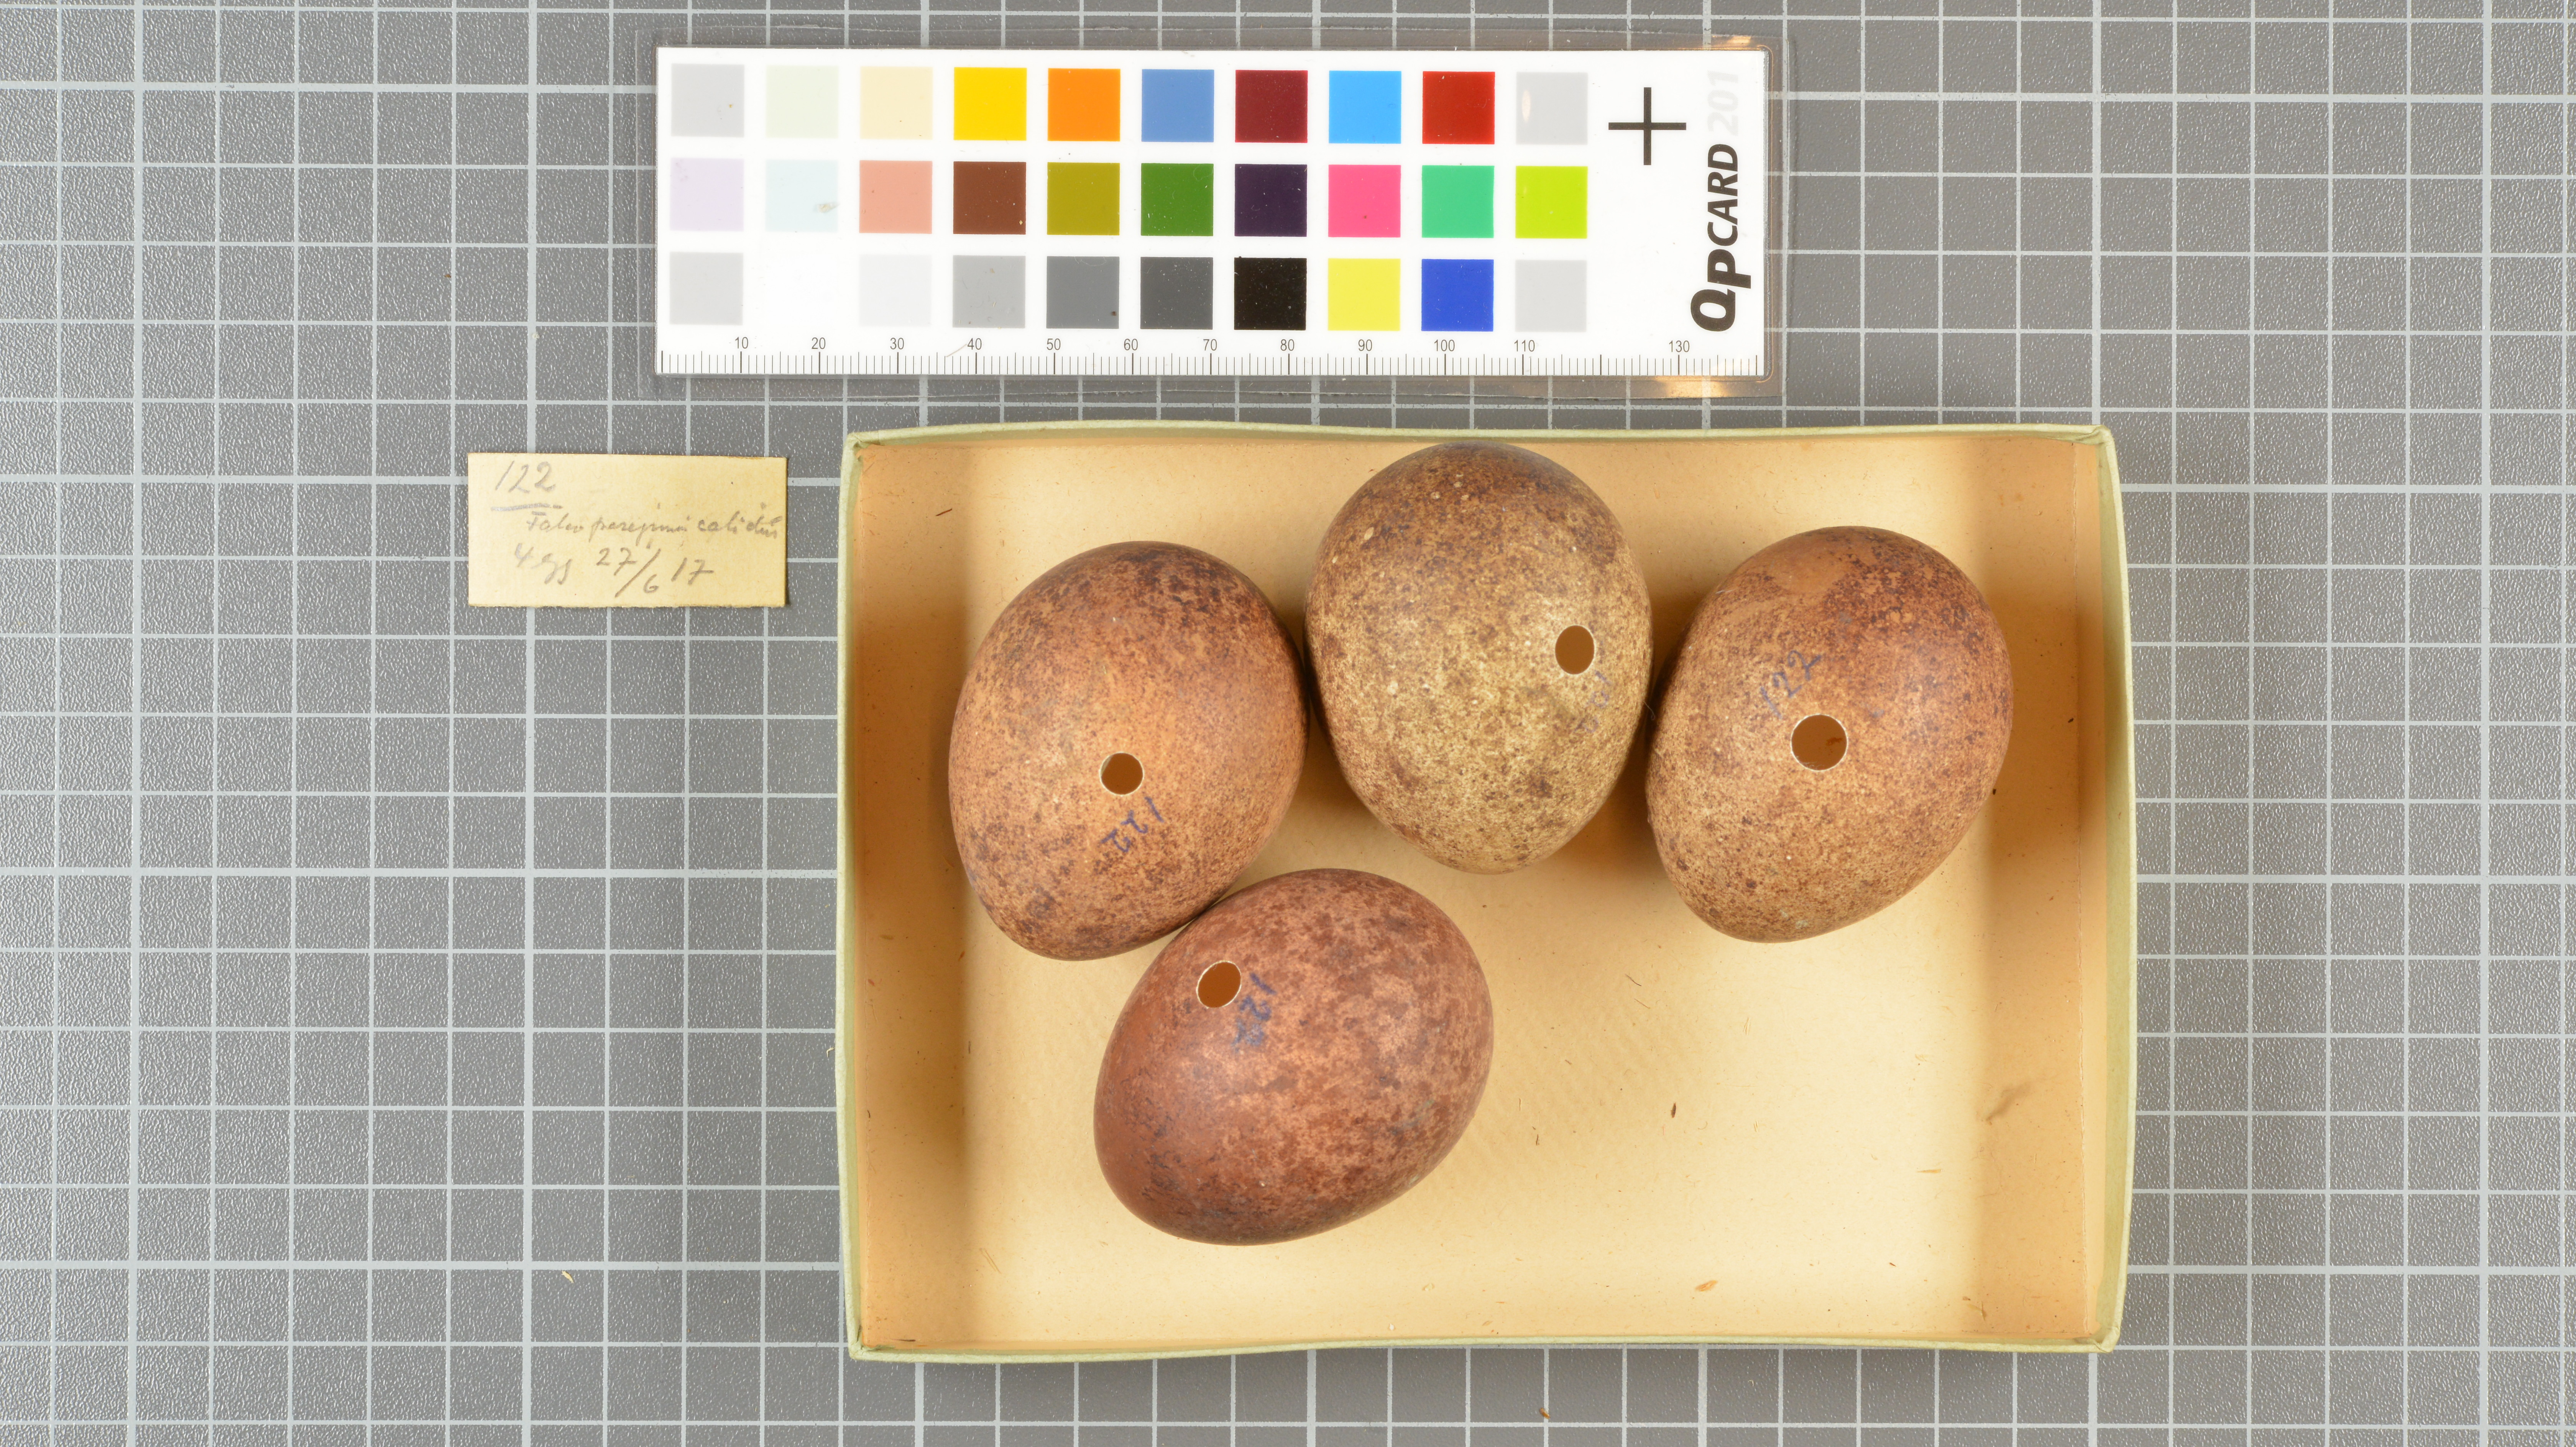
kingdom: Animalia
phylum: Chordata
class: Aves
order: Falconiformes
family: Falconidae
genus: Falco
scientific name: Falco peregrinus
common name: Peregrine falcon
